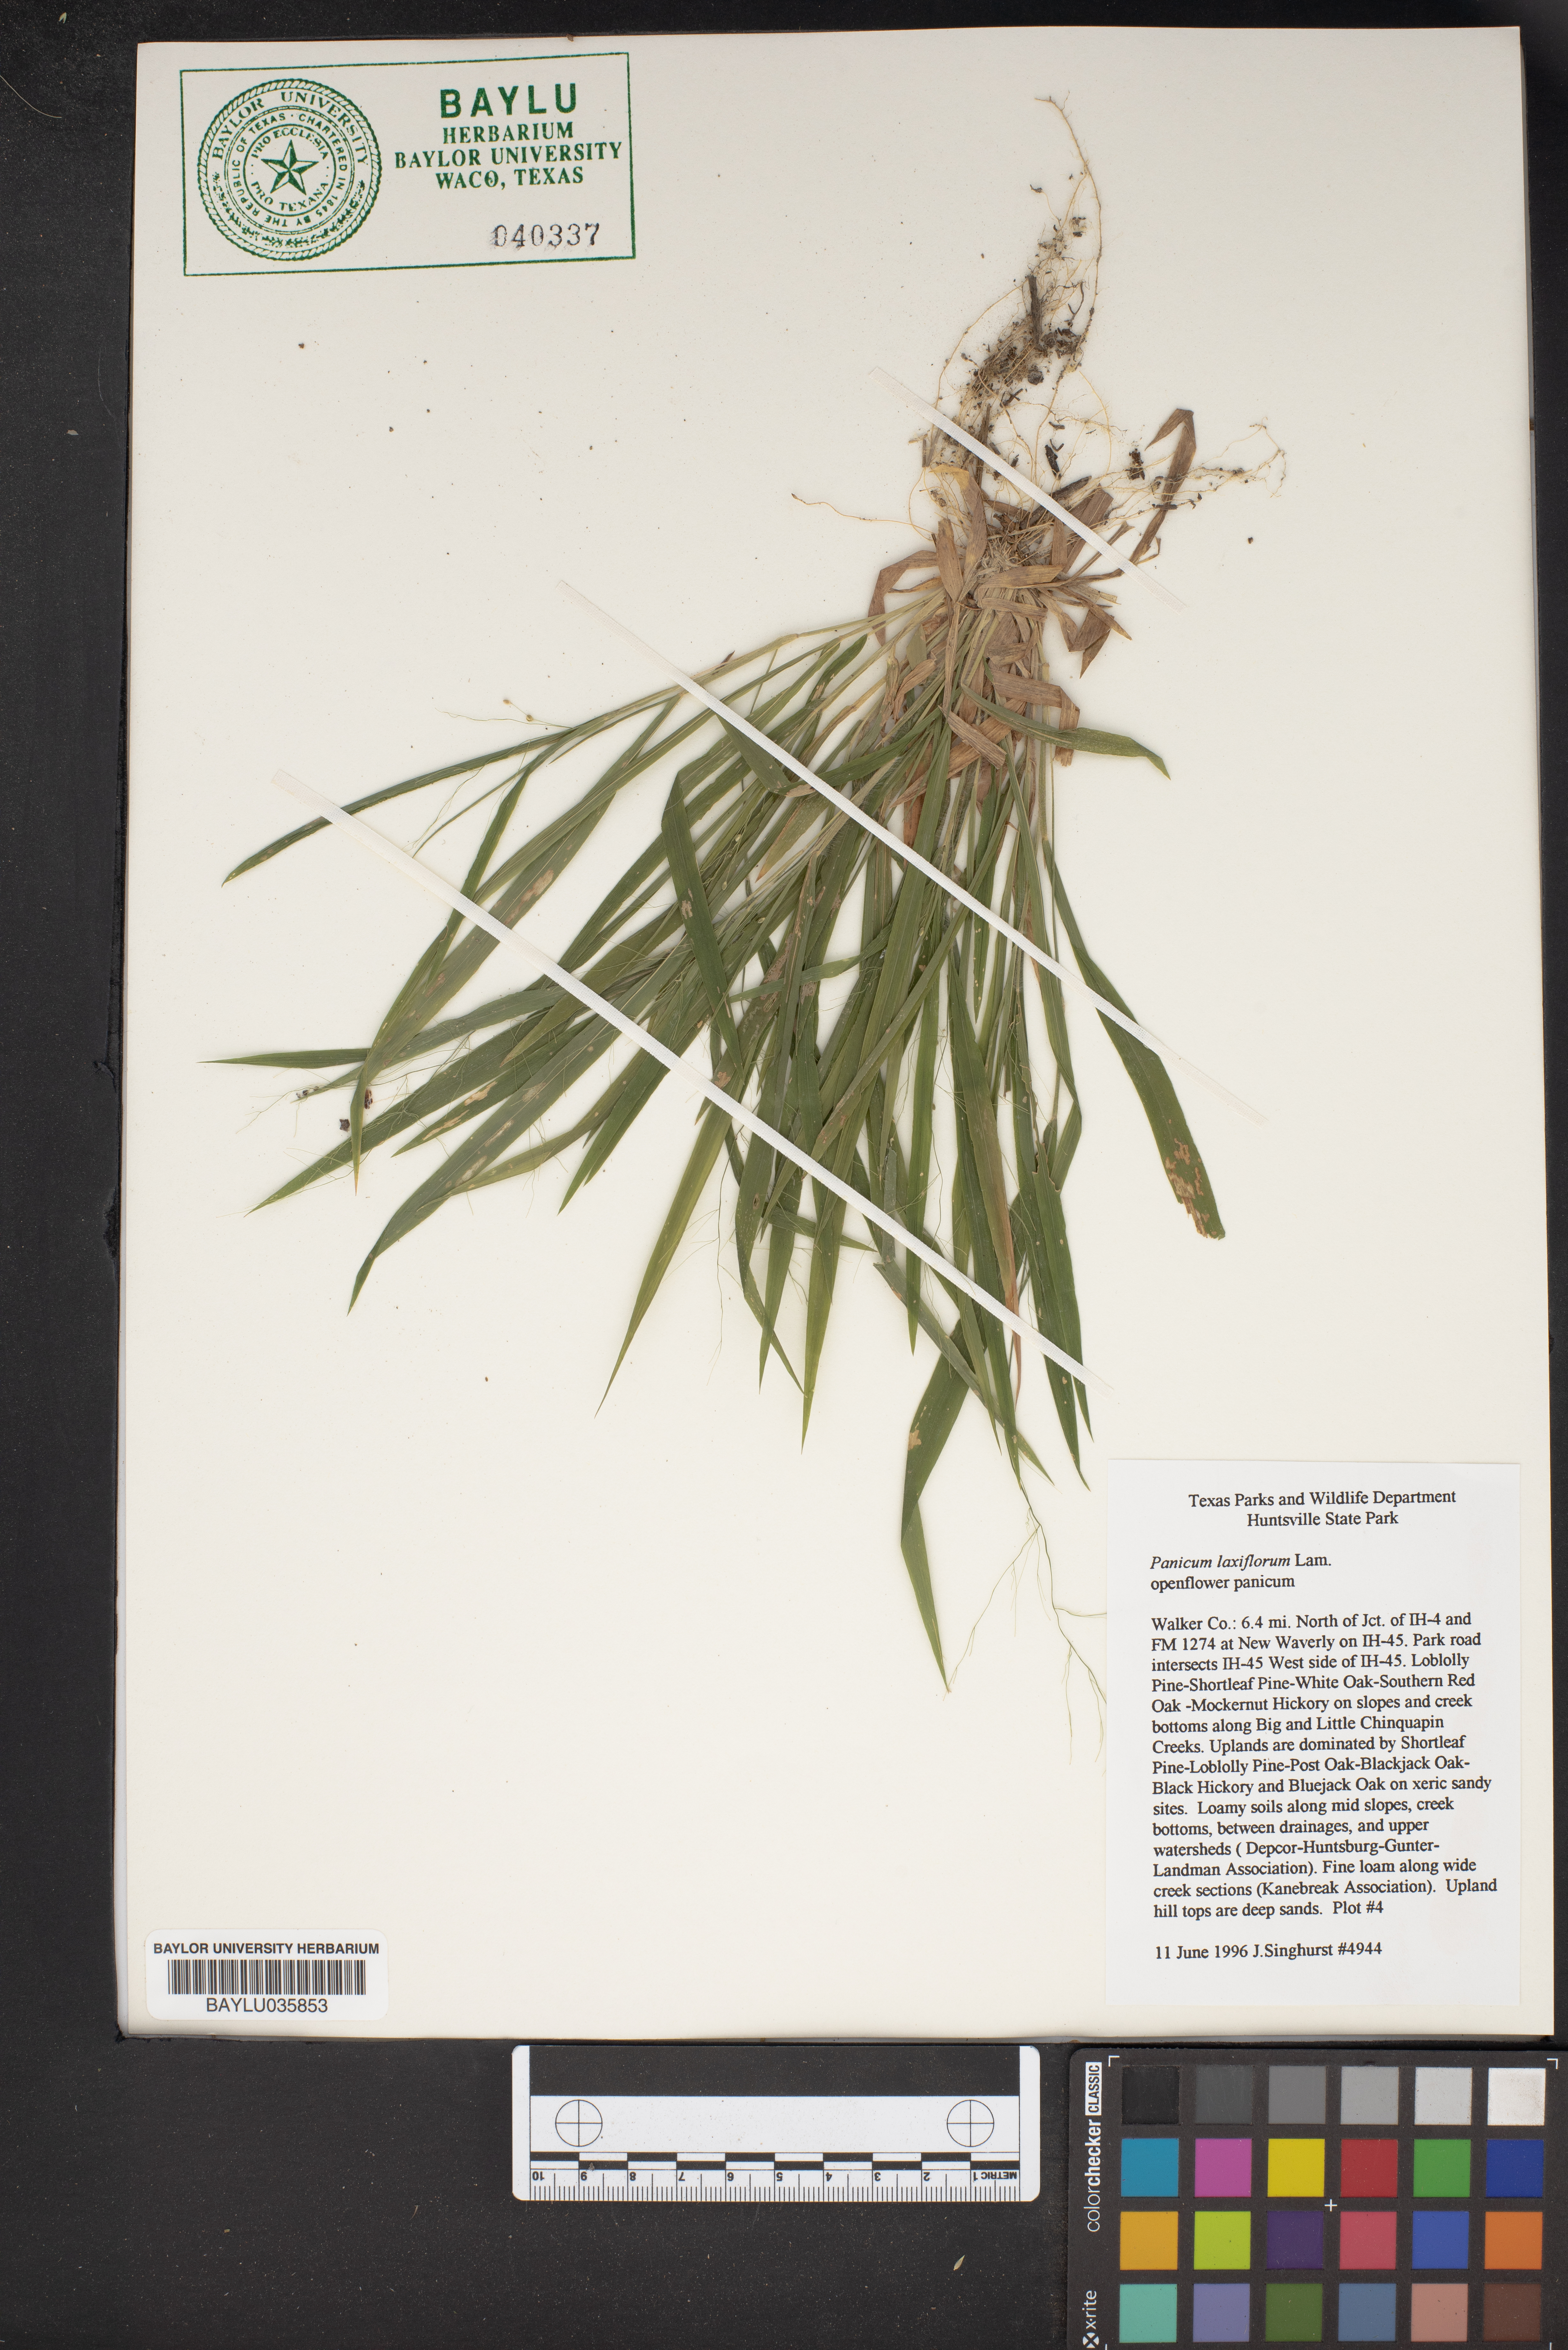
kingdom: Plantae
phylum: Tracheophyta
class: Liliopsida
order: Poales
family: Poaceae
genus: Dichanthelium
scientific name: Dichanthelium laxiflorum
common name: Soft-tuft panic grass
